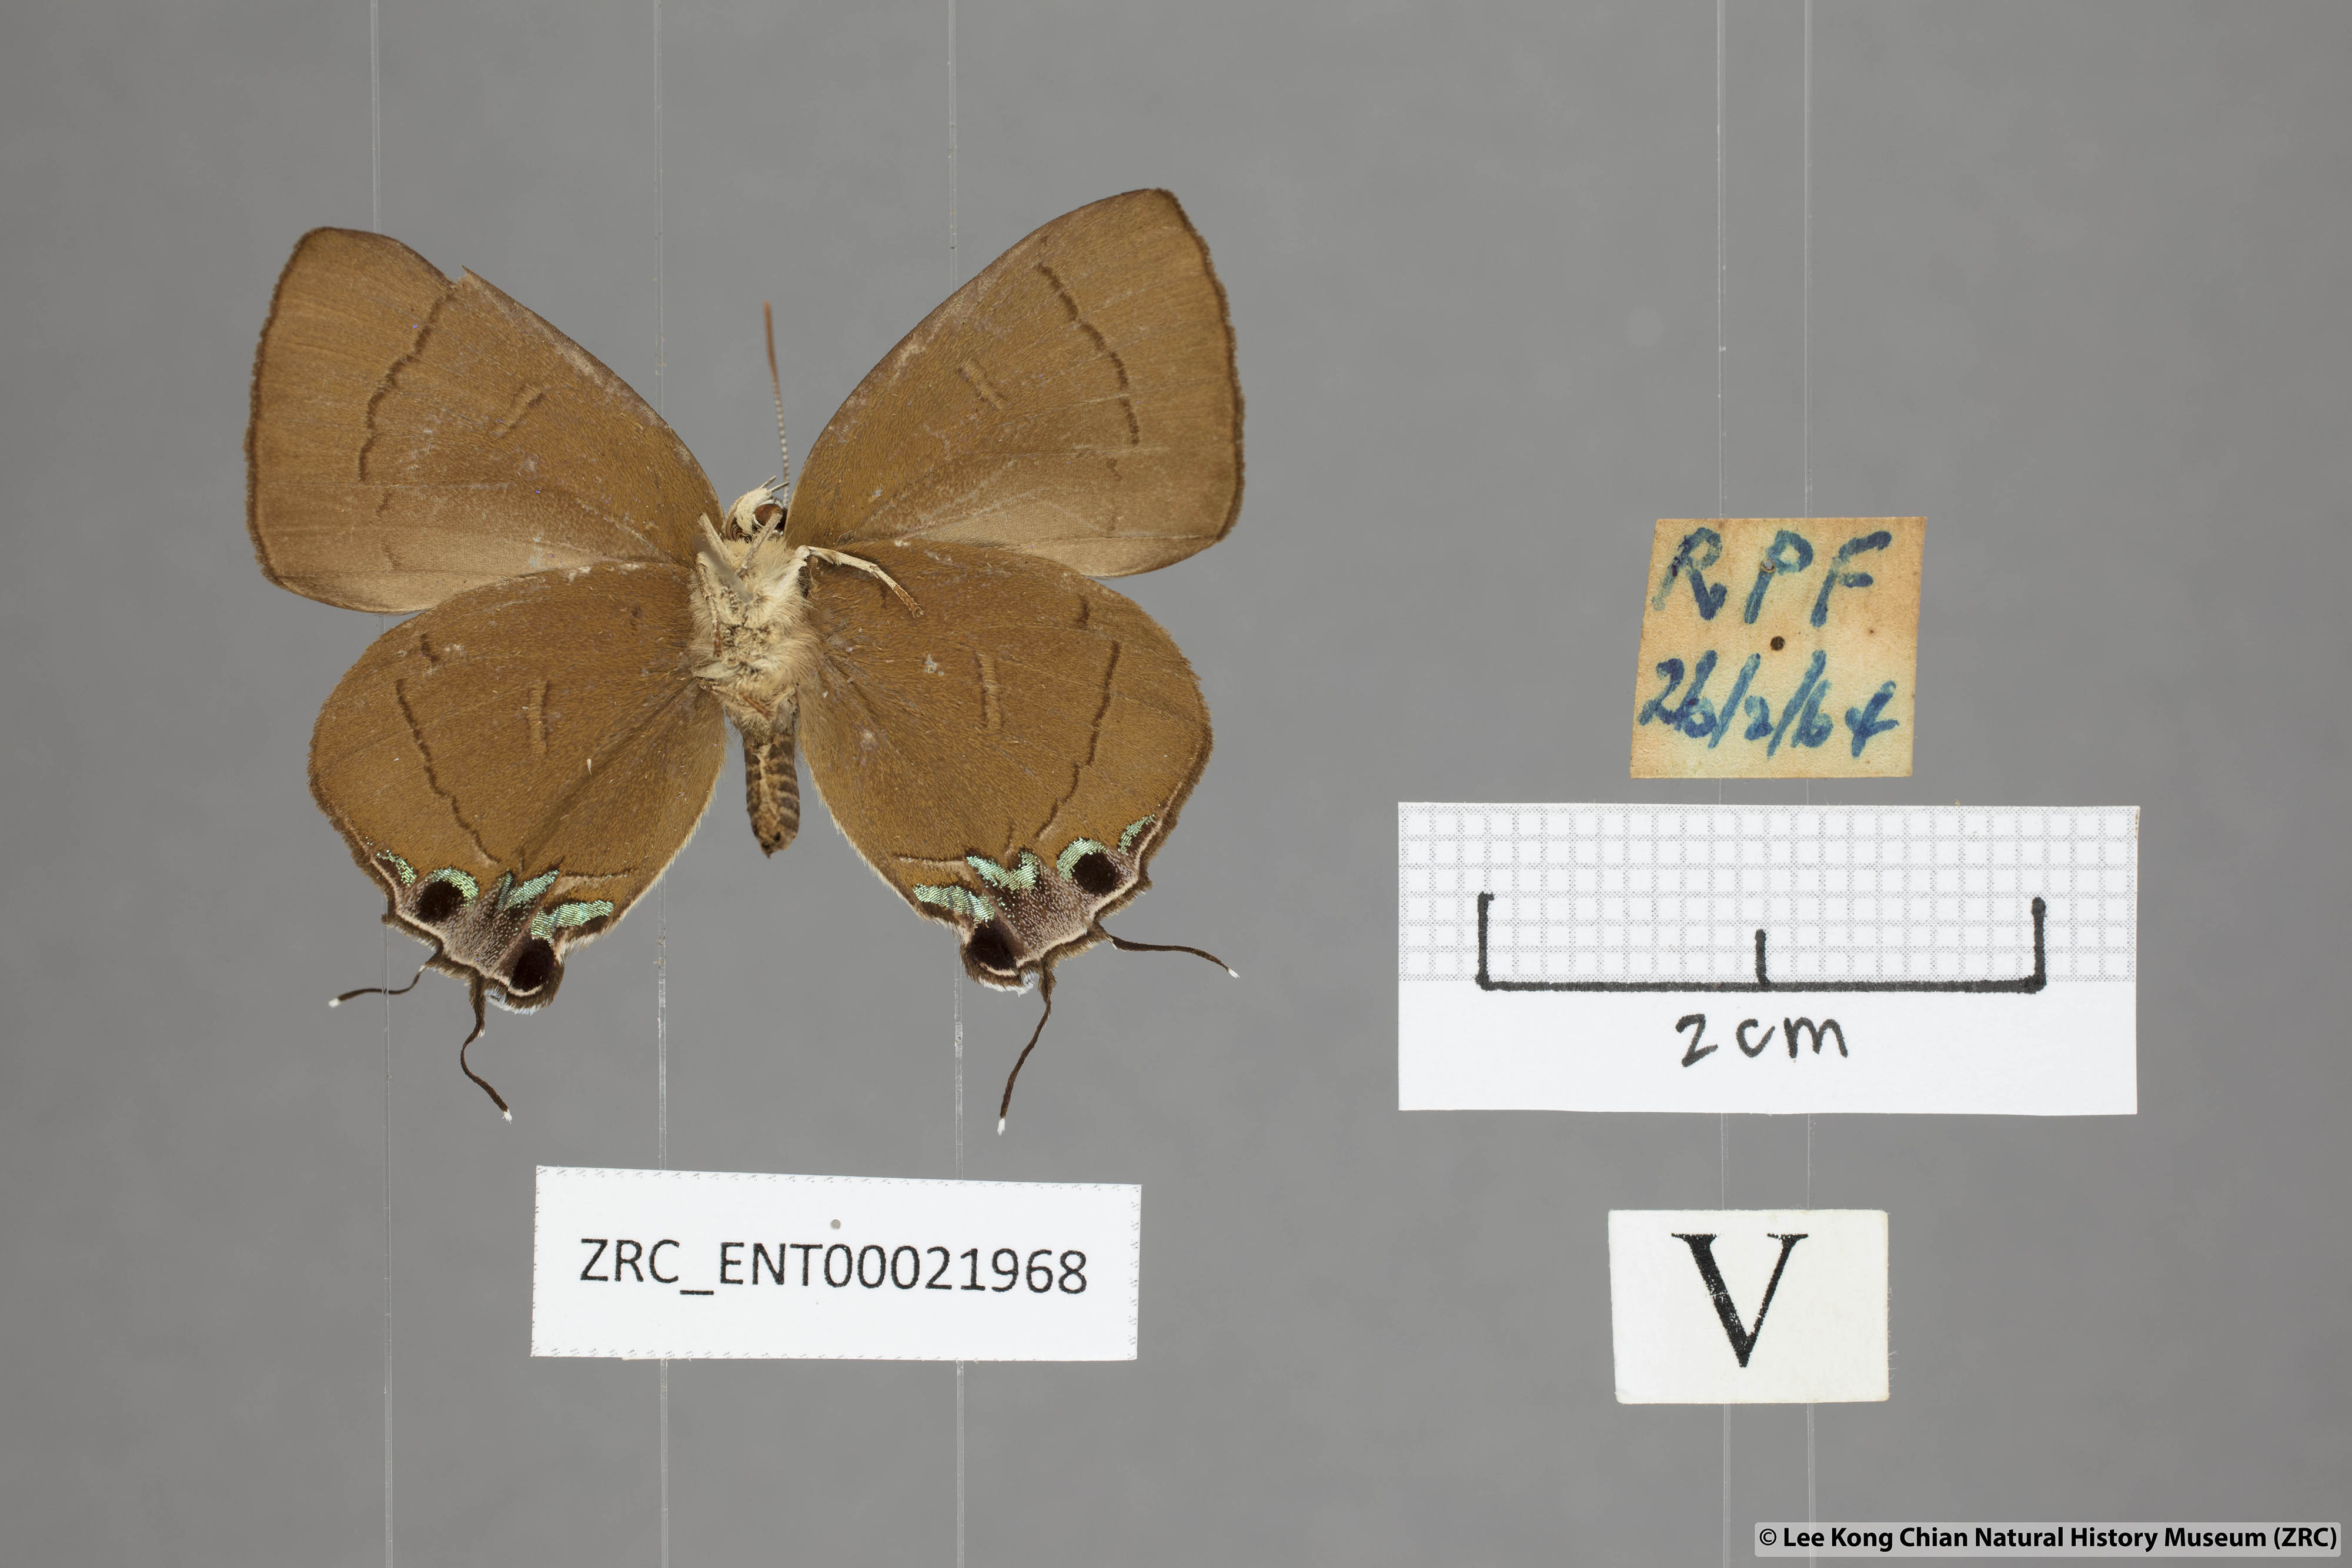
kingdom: Animalia
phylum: Arthropoda
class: Insecta
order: Lepidoptera
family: Lycaenidae
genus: Remelana
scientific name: Remelana jangala
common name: Chocolate royal
